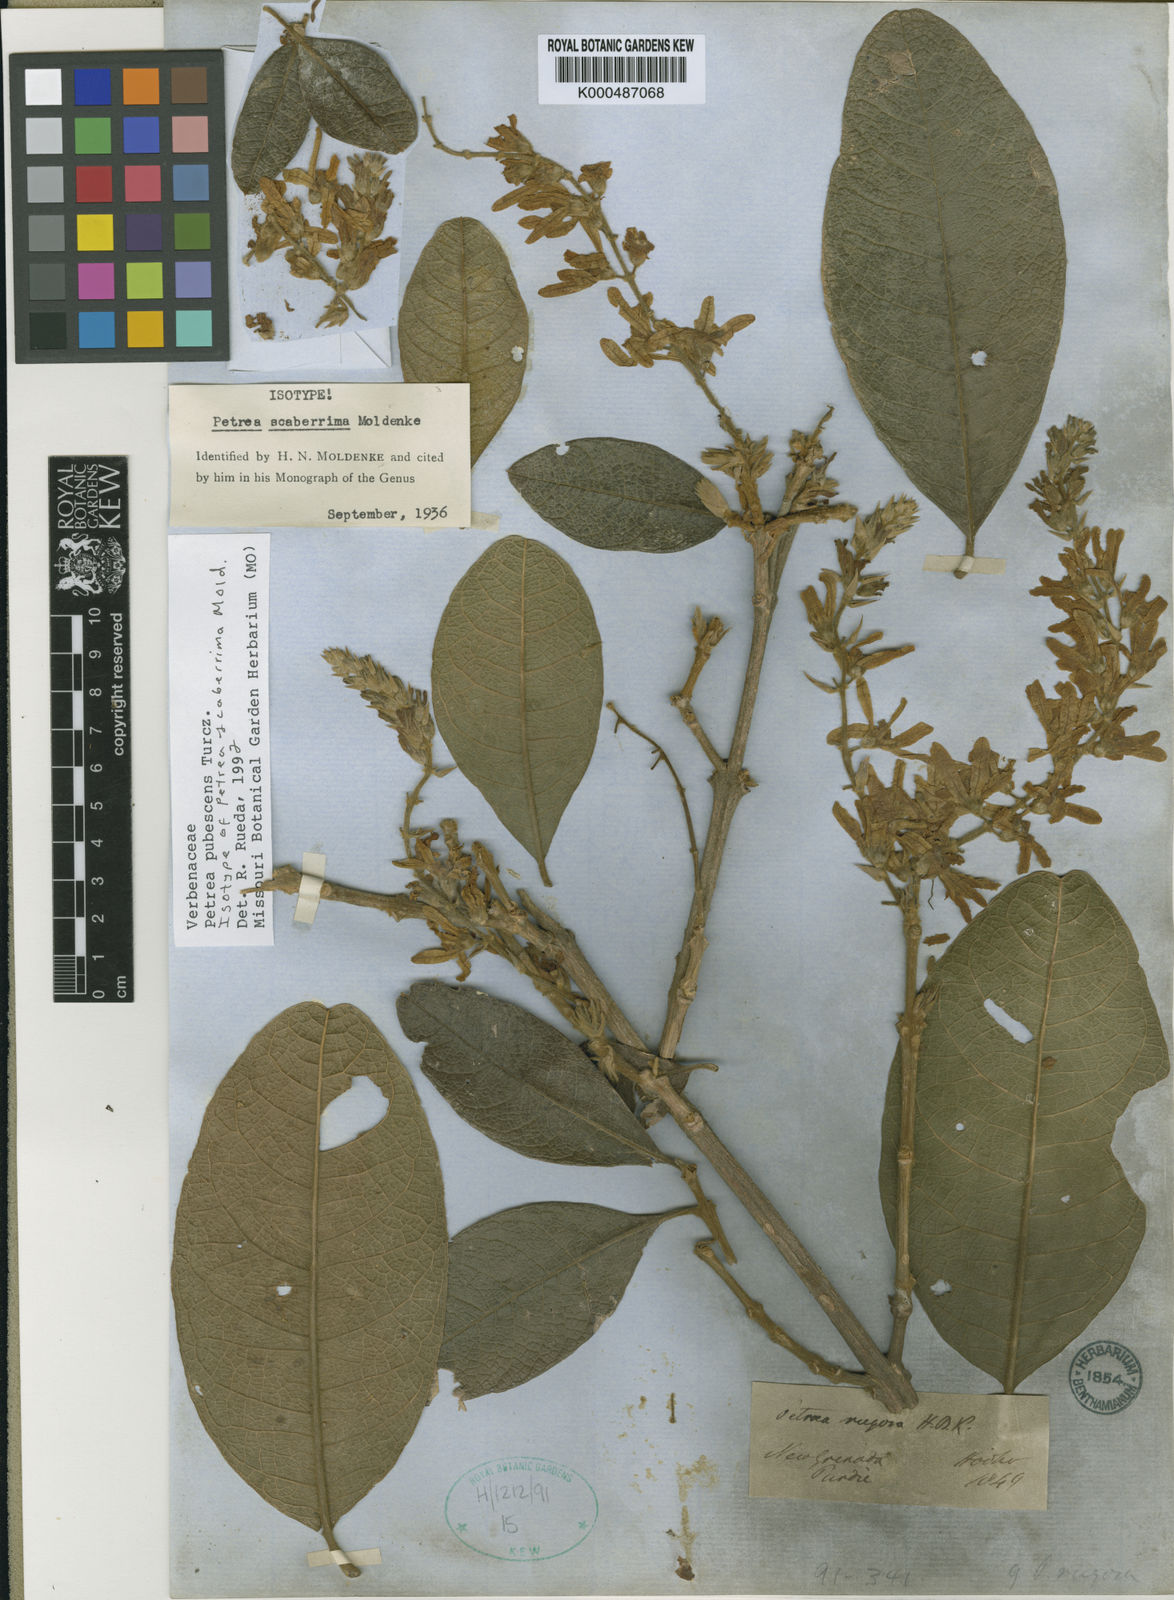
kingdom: Plantae
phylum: Tracheophyta
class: Magnoliopsida
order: Lamiales
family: Verbenaceae
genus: Petrea
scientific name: Petrea rugosa
